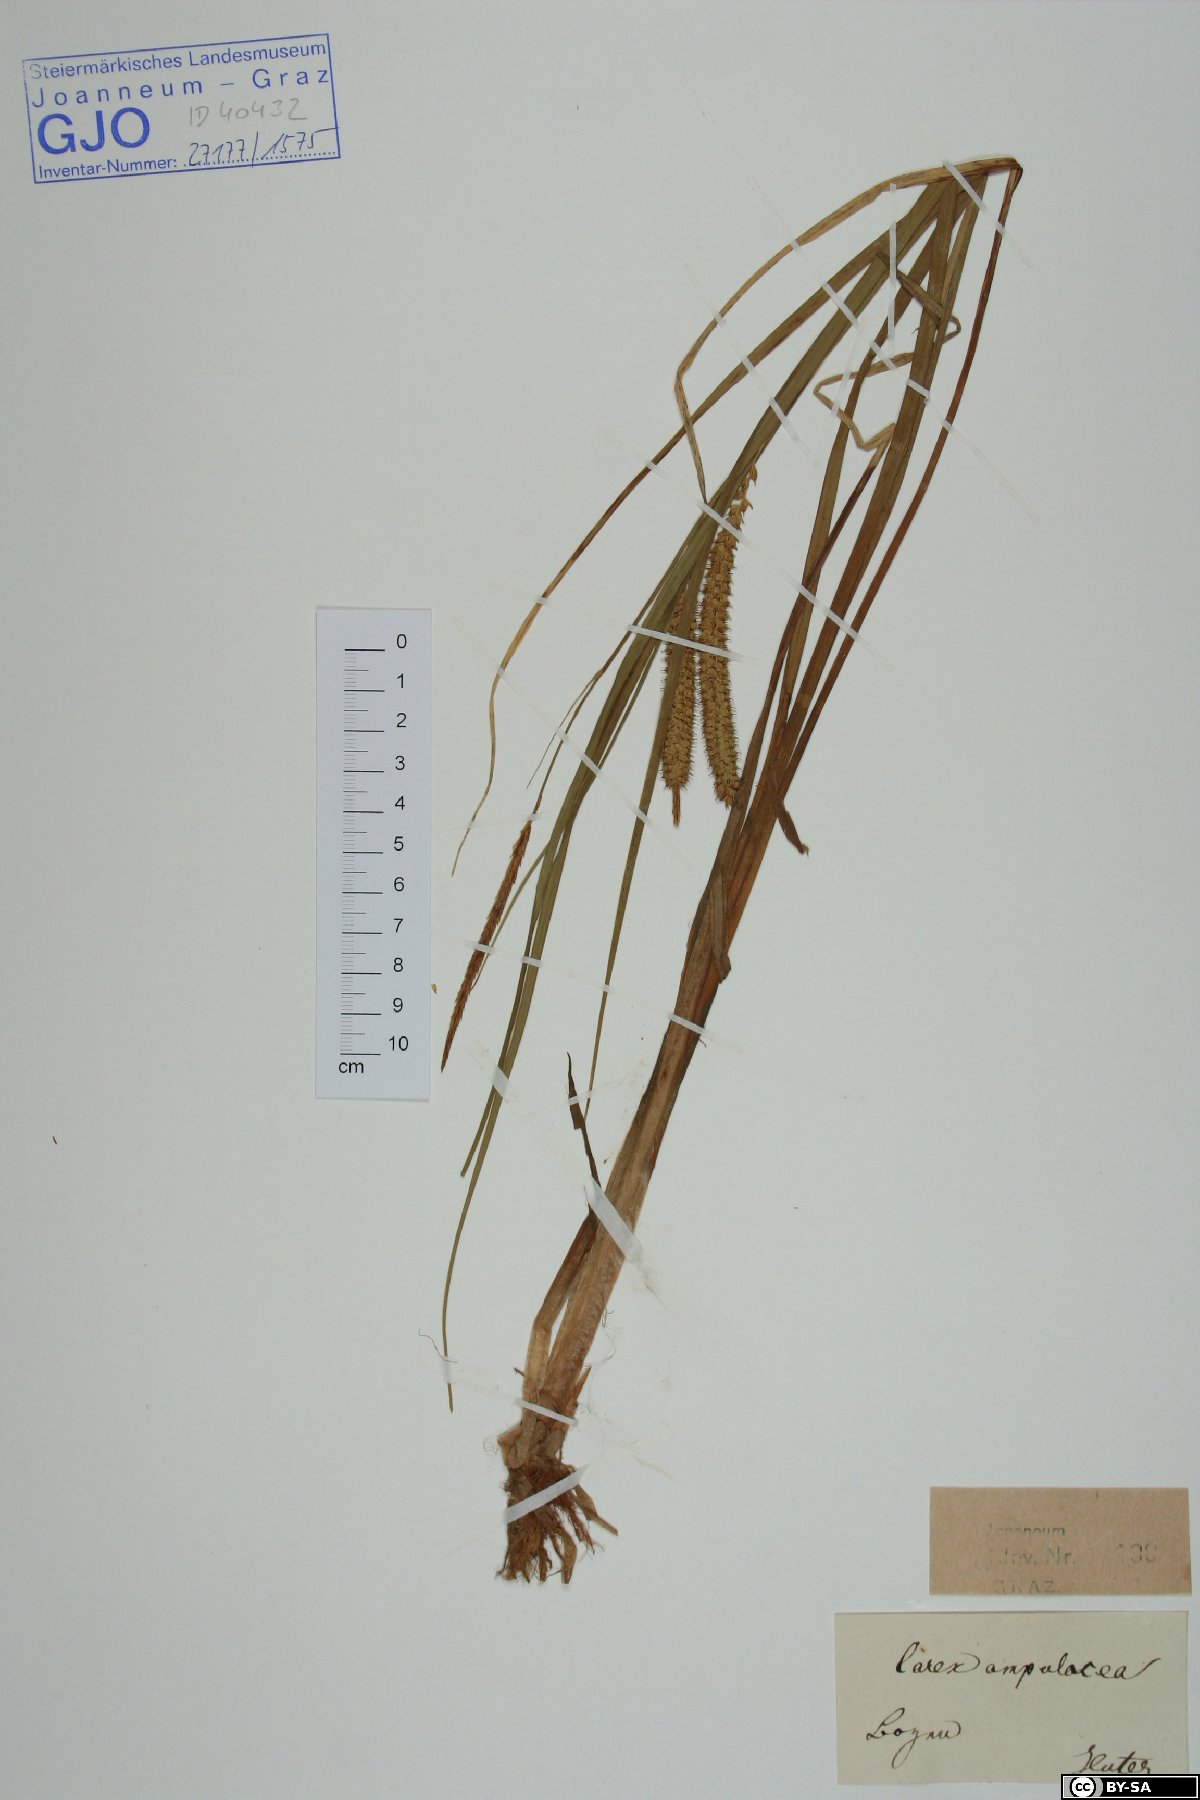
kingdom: Plantae
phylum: Tracheophyta
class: Liliopsida
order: Poales
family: Cyperaceae
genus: Carex
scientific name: Carex rostrata
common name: Bottle sedge
